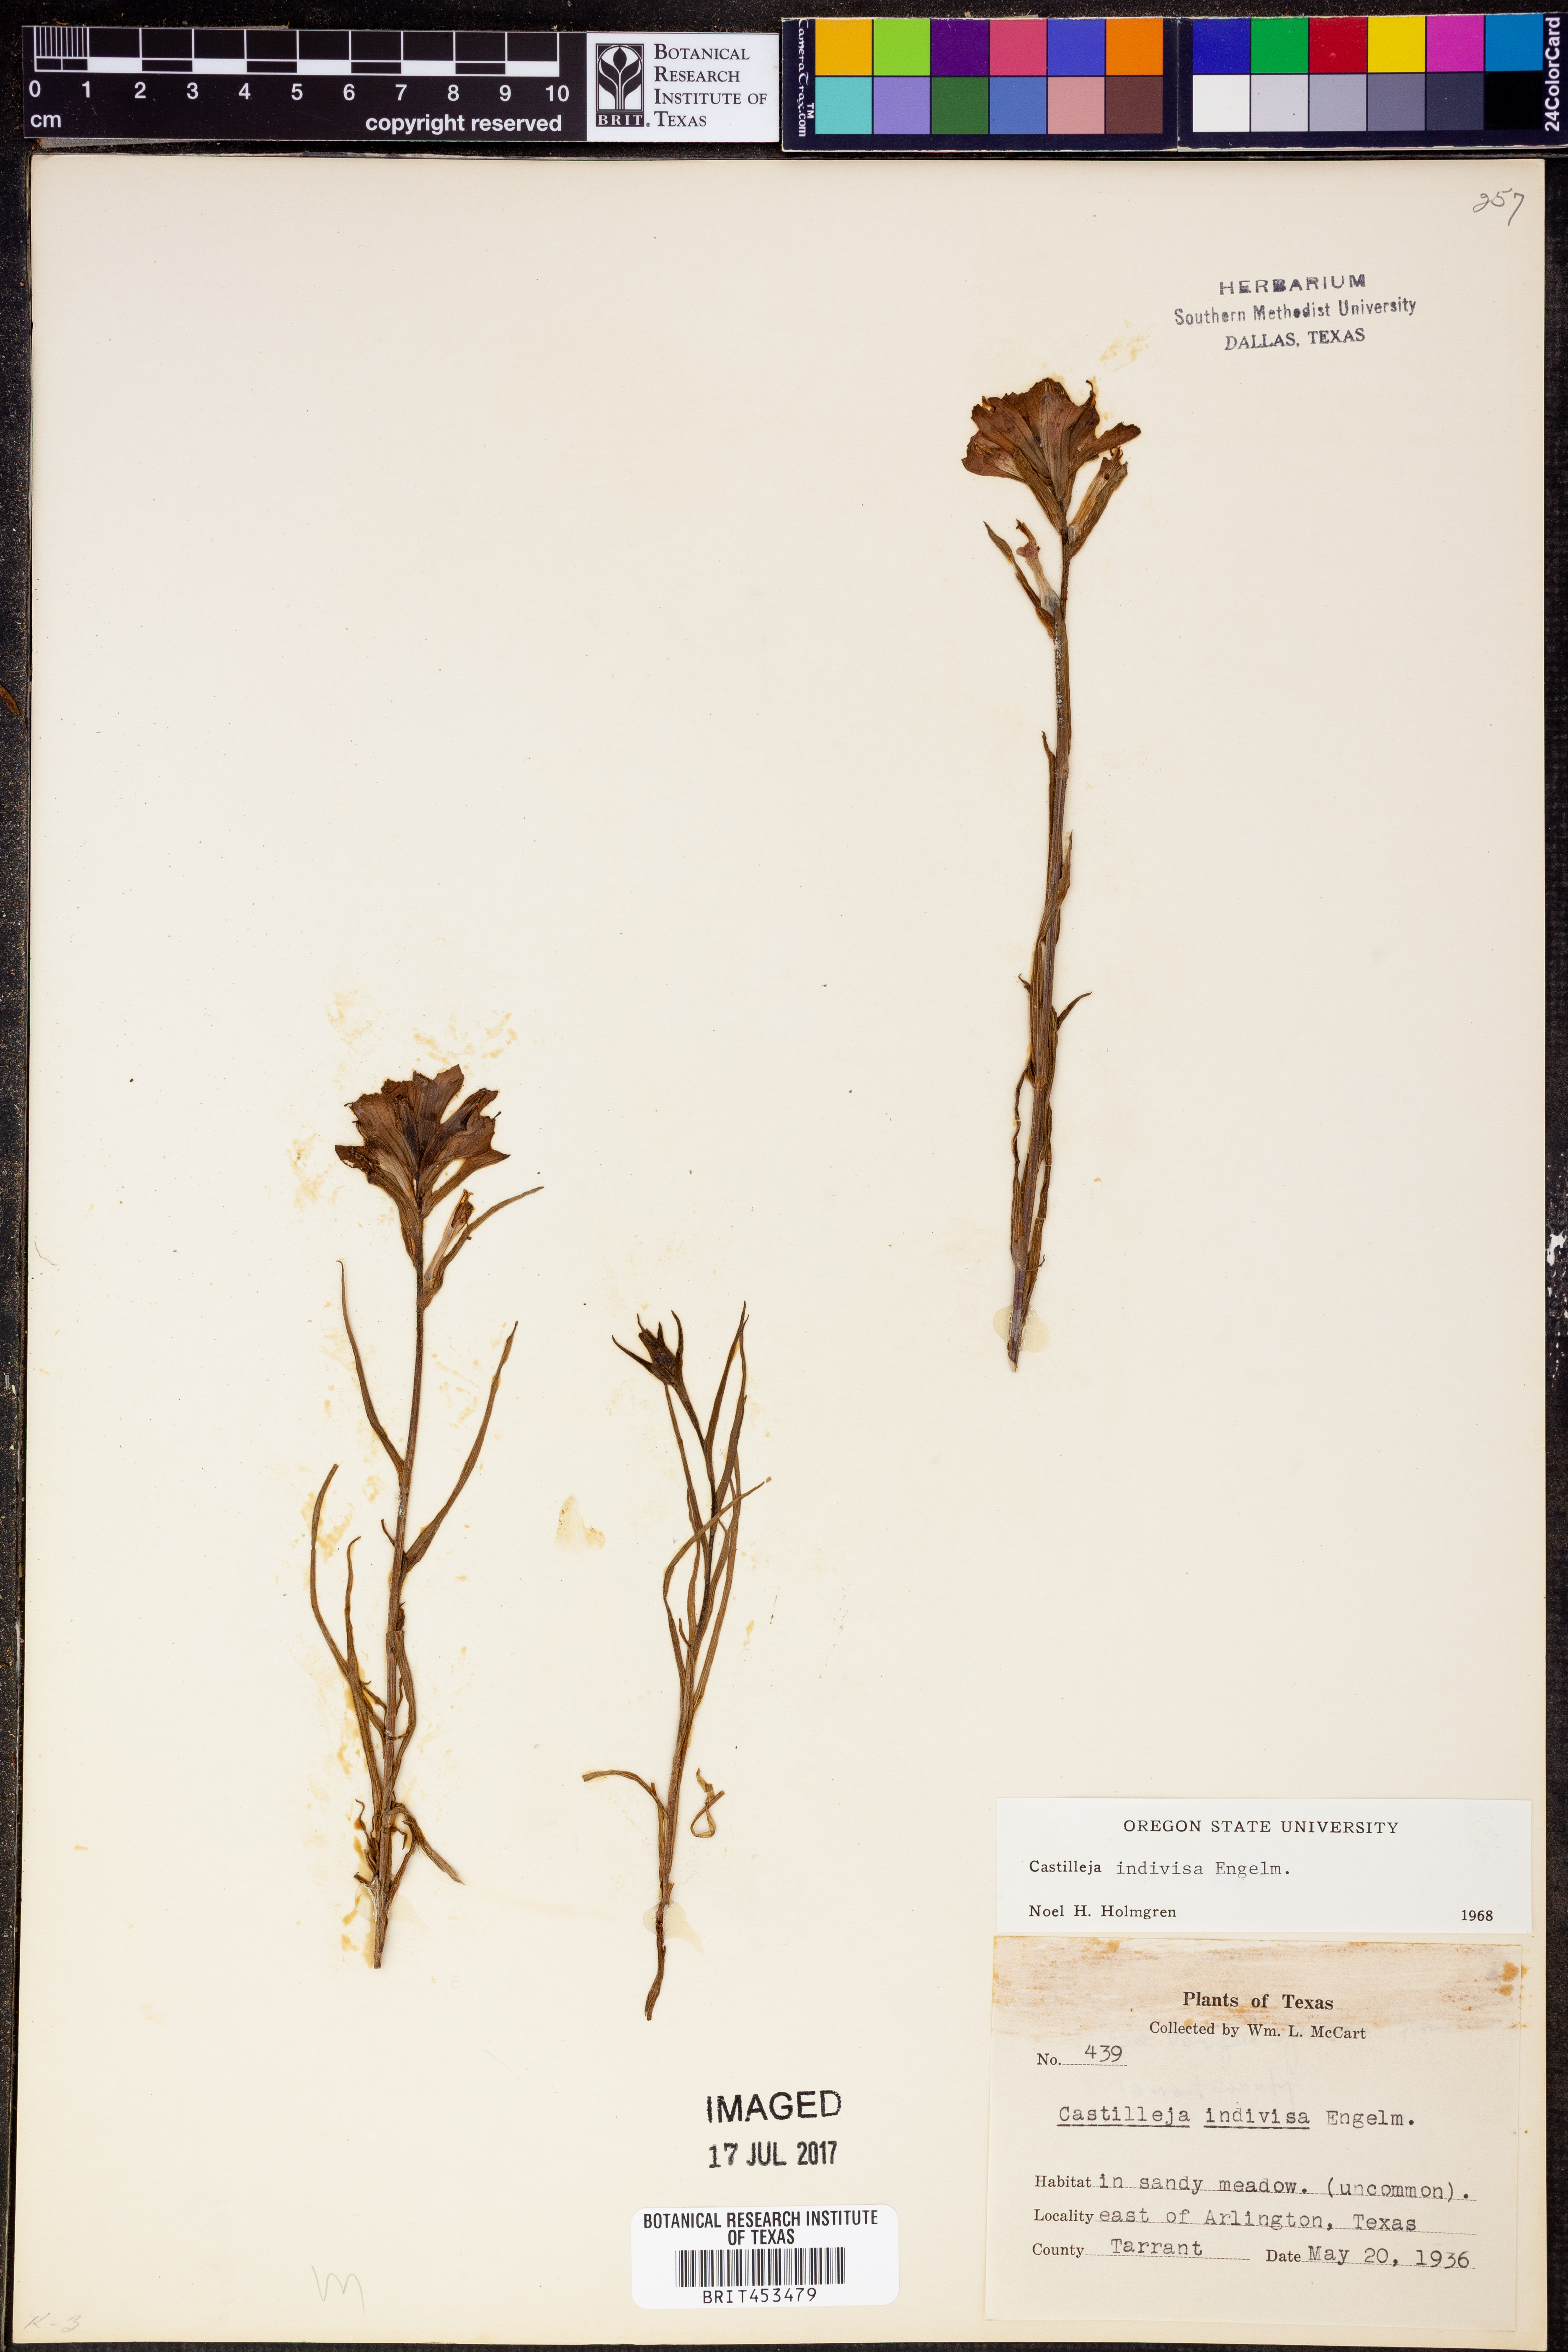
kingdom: Plantae
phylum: Tracheophyta
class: Magnoliopsida
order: Lamiales
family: Orobanchaceae
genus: Castilleja
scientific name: Castilleja indivisa
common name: Texas paintbrush
